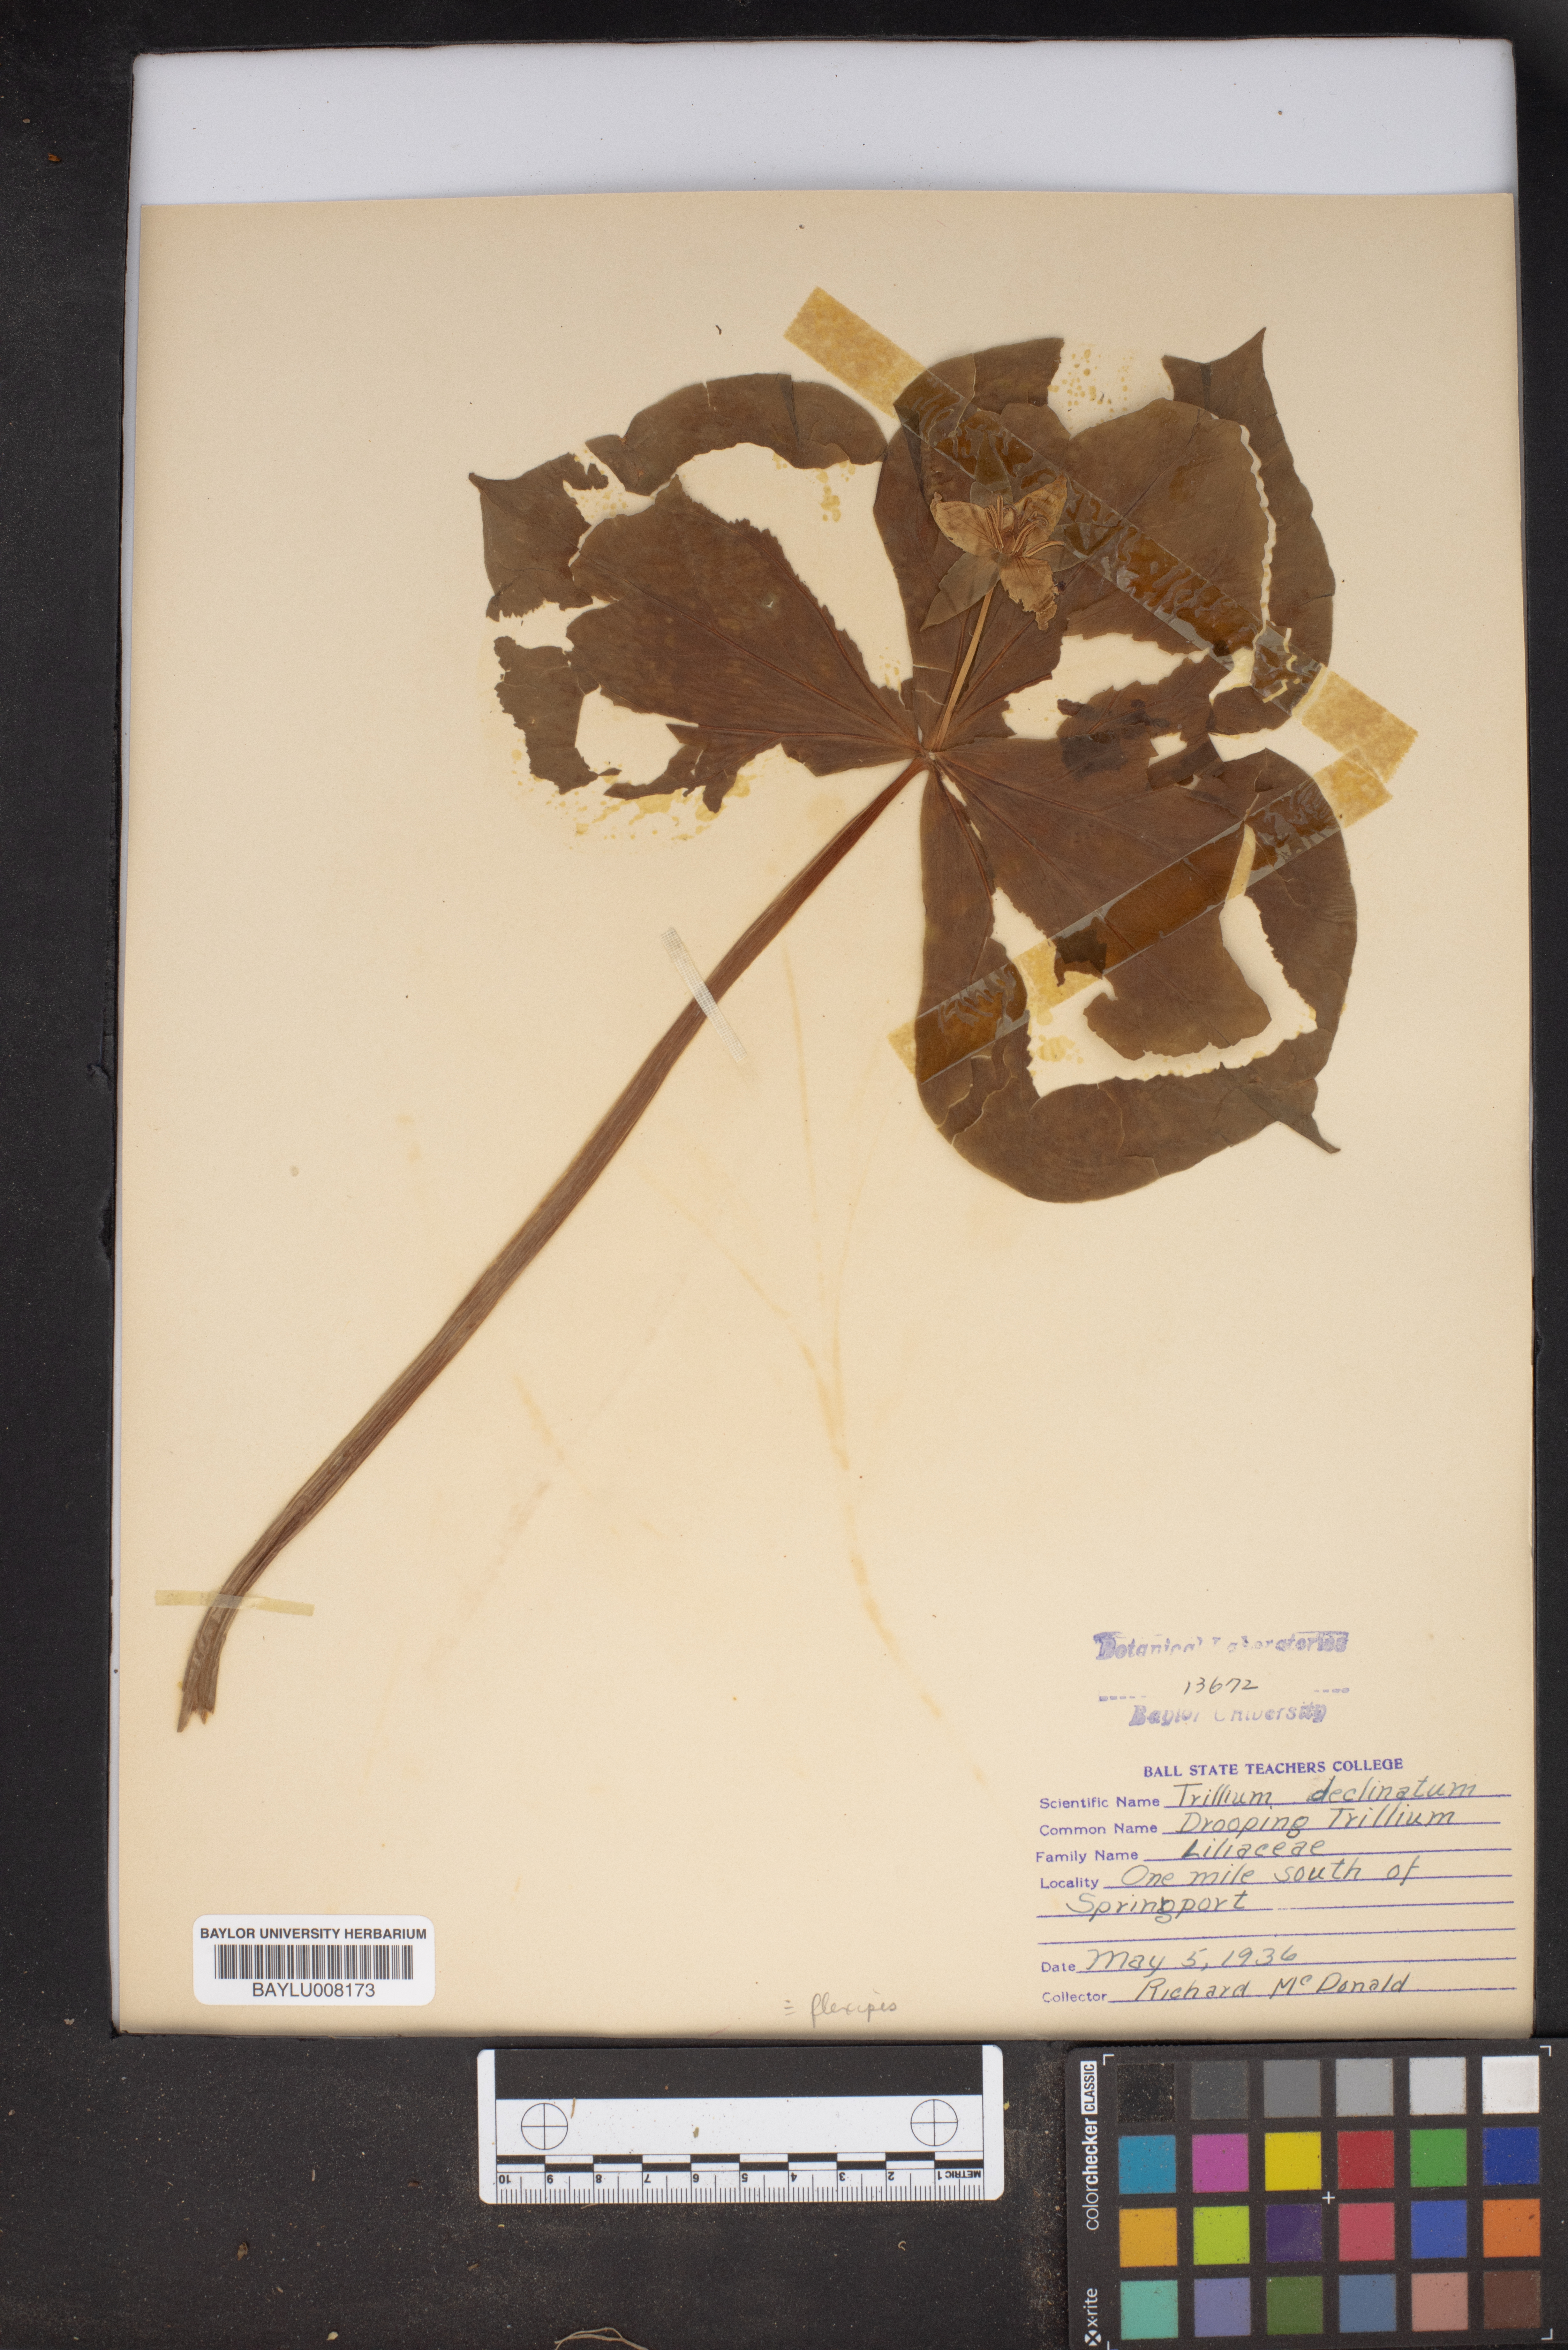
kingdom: Plantae
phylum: Tracheophyta
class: Liliopsida
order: Liliales
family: Melanthiaceae
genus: Trillium
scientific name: Trillium
